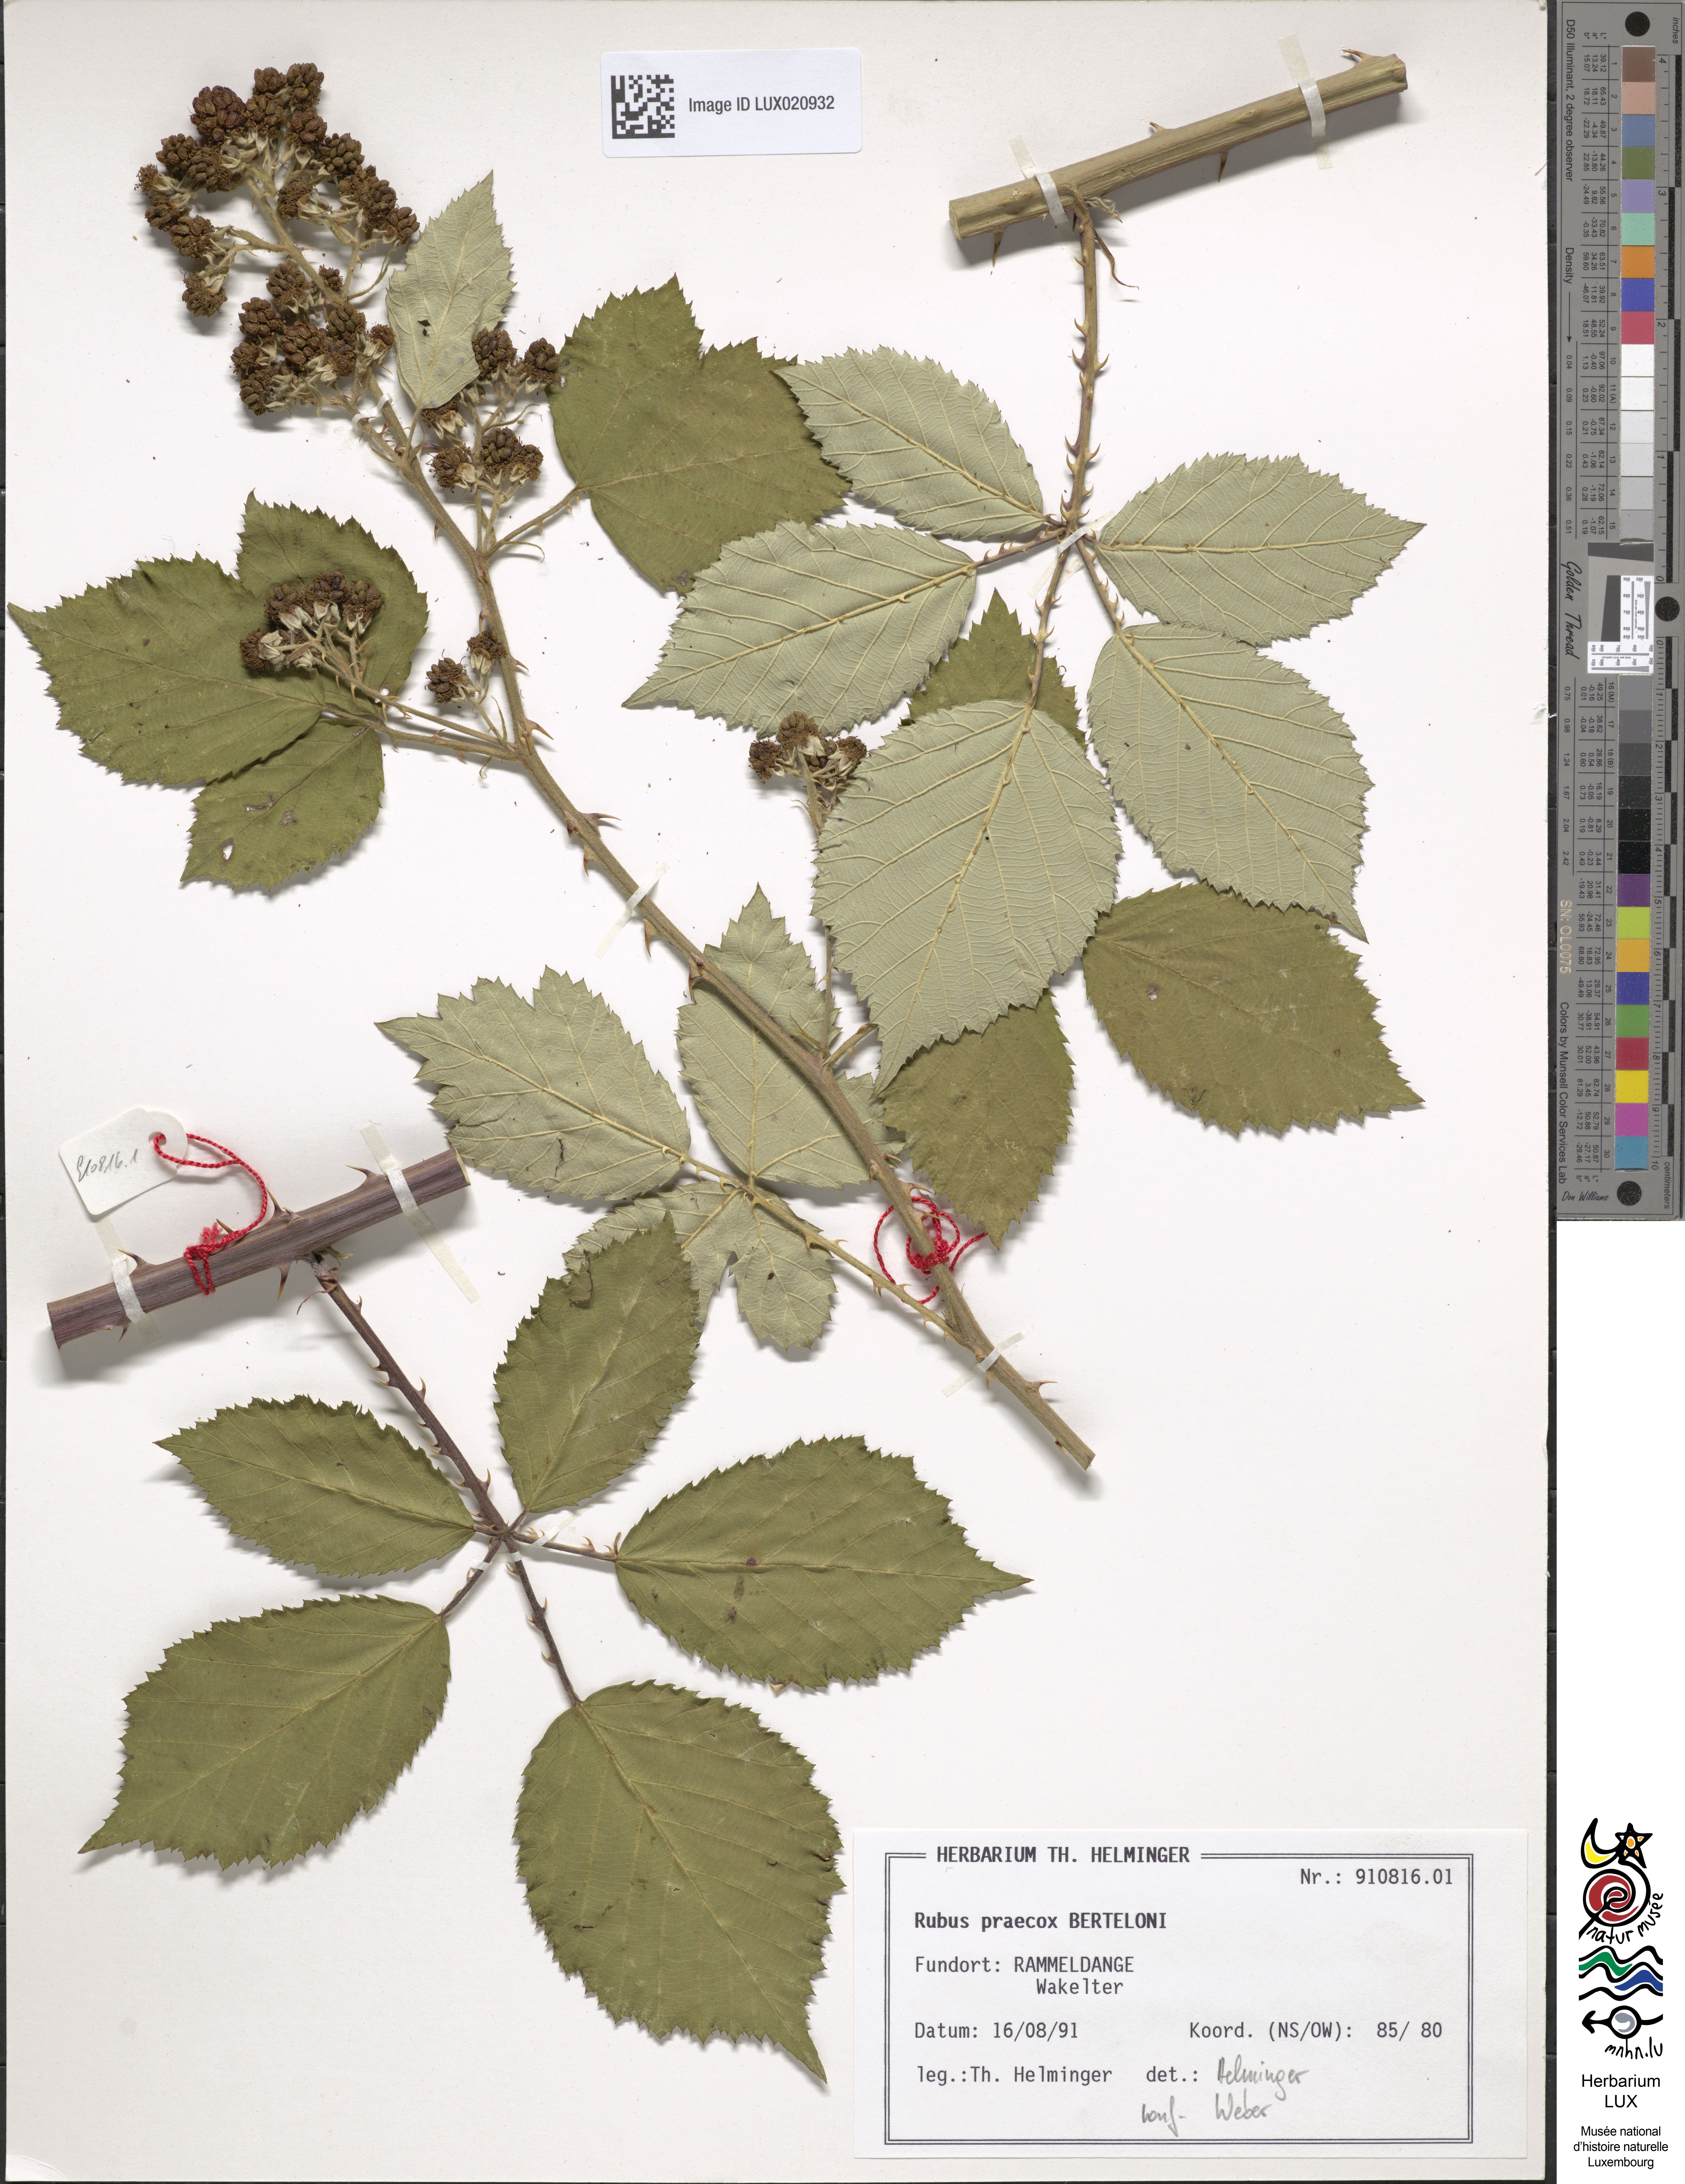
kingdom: Plantae
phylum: Tracheophyta
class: Magnoliopsida
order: Rosales
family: Rosaceae
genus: Rubus
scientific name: Rubus praecox
